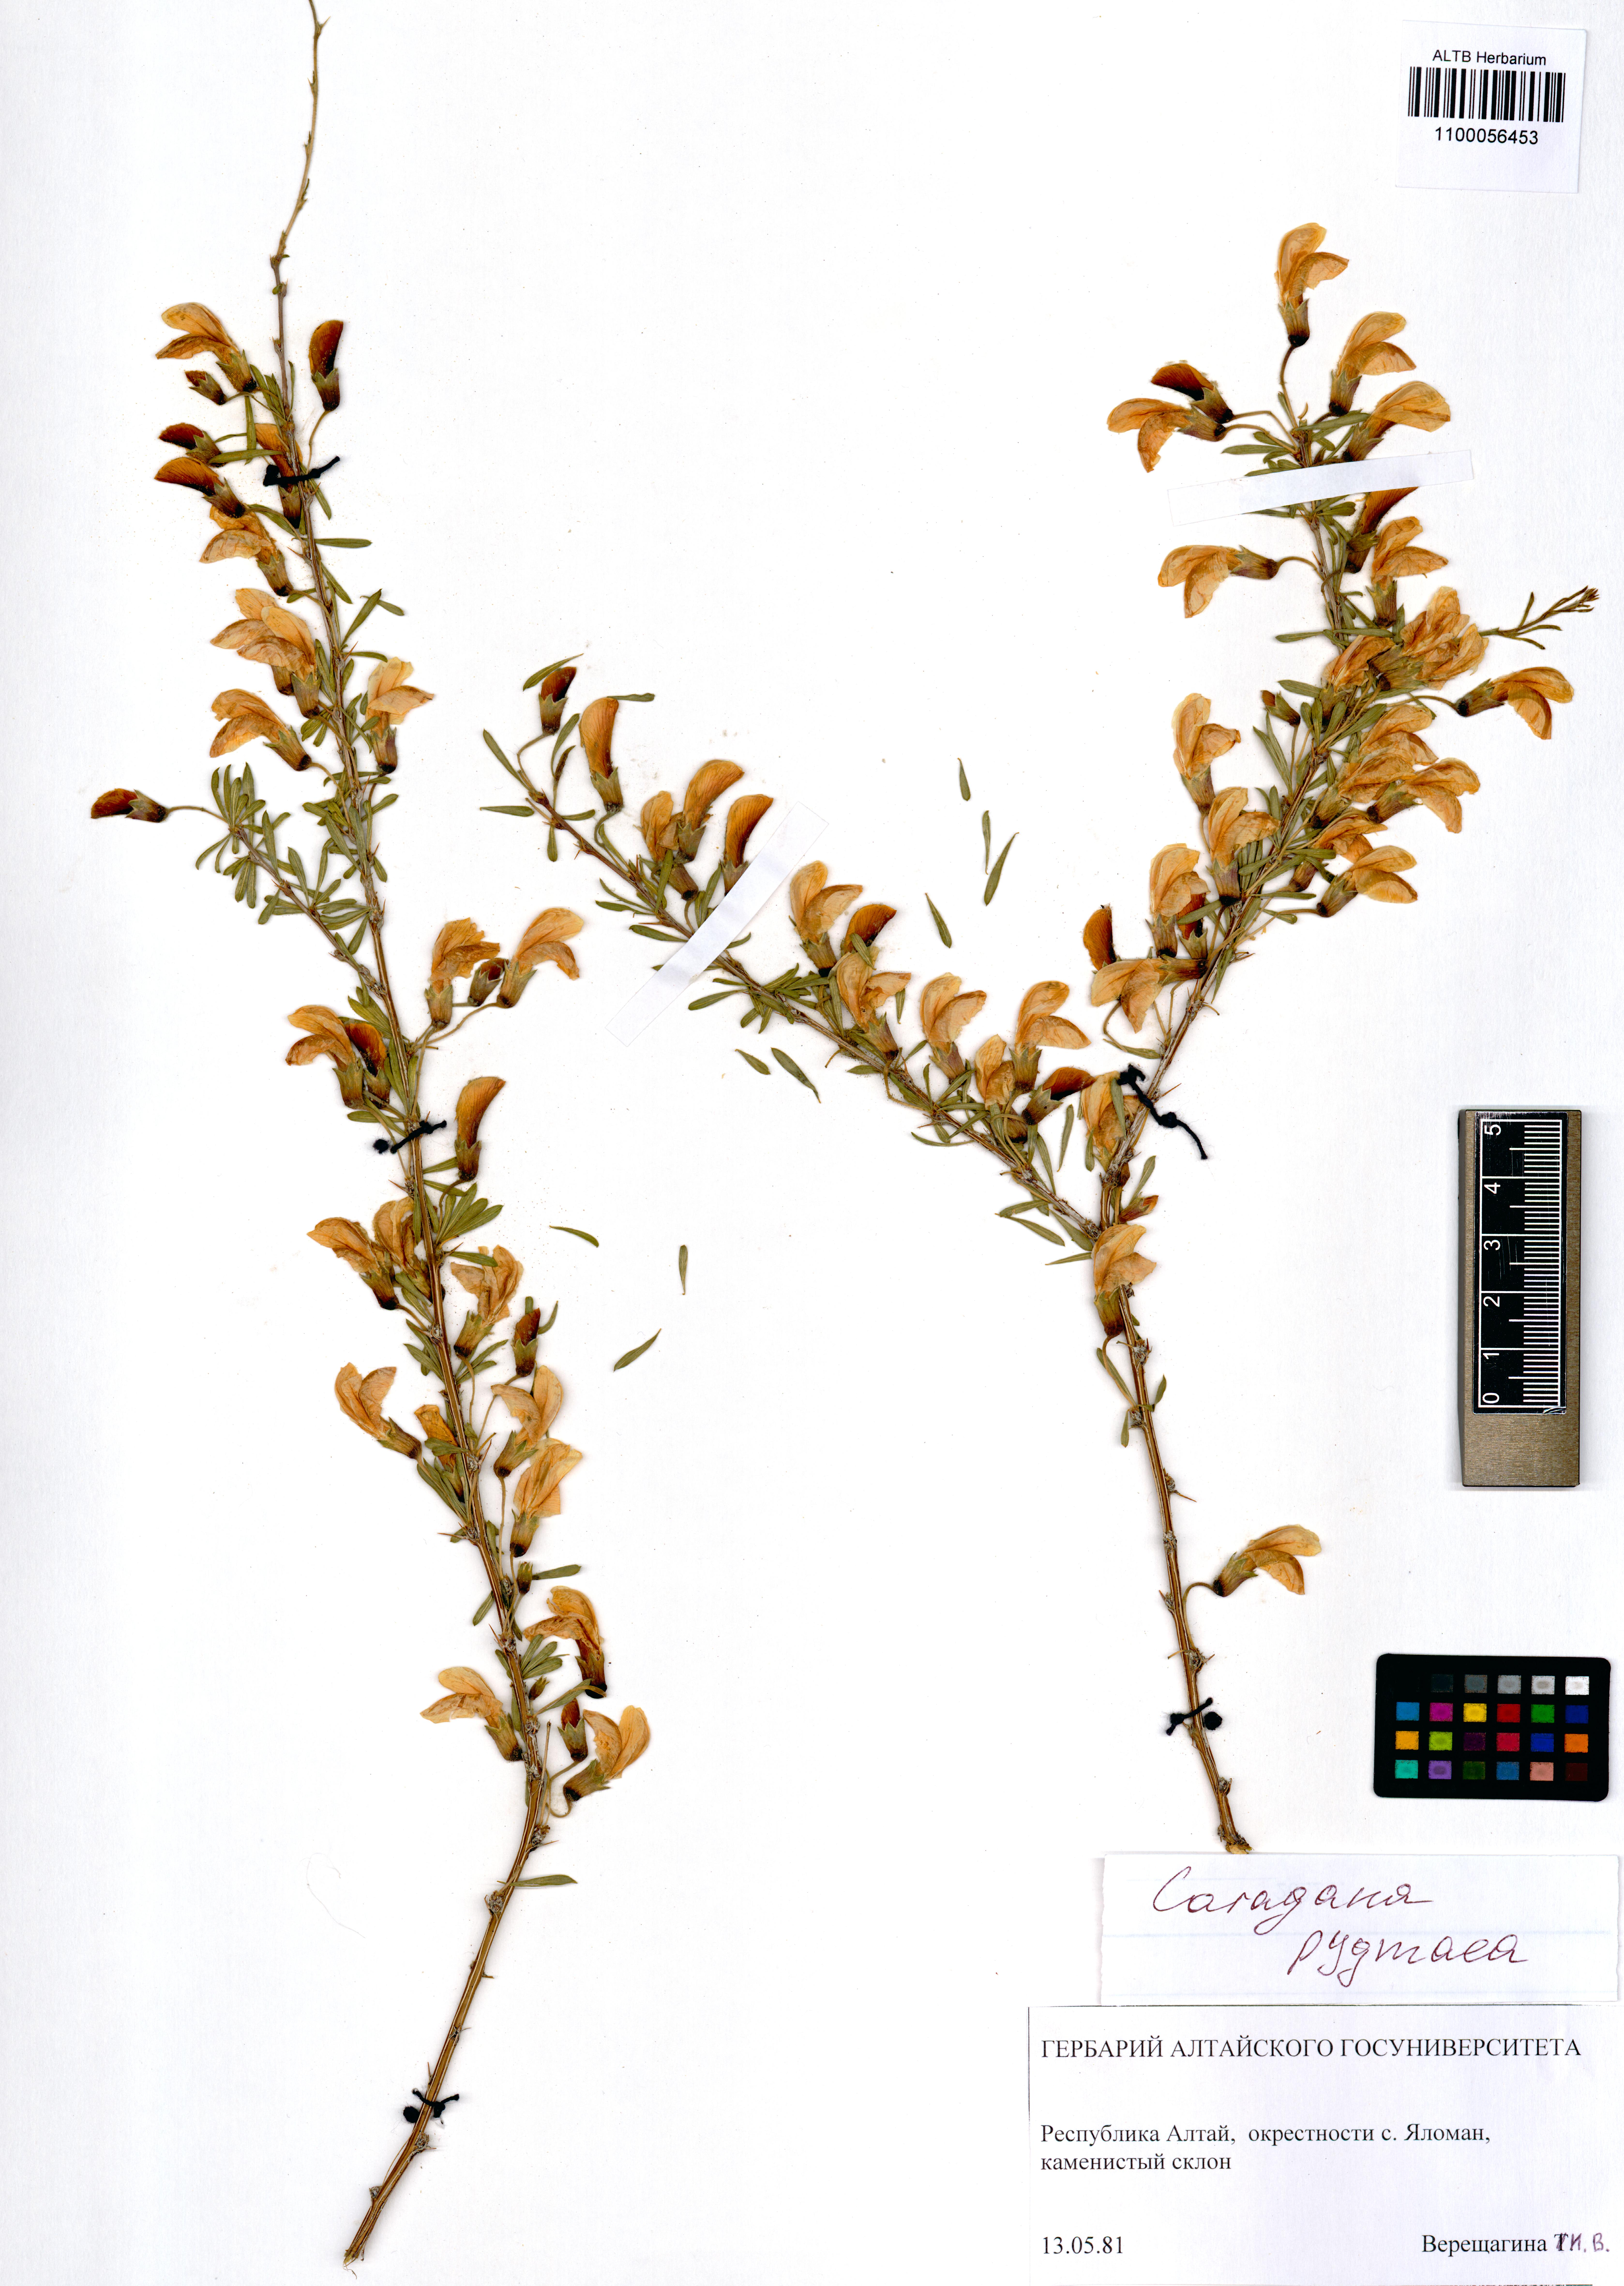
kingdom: Plantae
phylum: Tracheophyta
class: Magnoliopsida
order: Fabales
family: Fabaceae
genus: Caragana
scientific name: Caragana pygmaea
